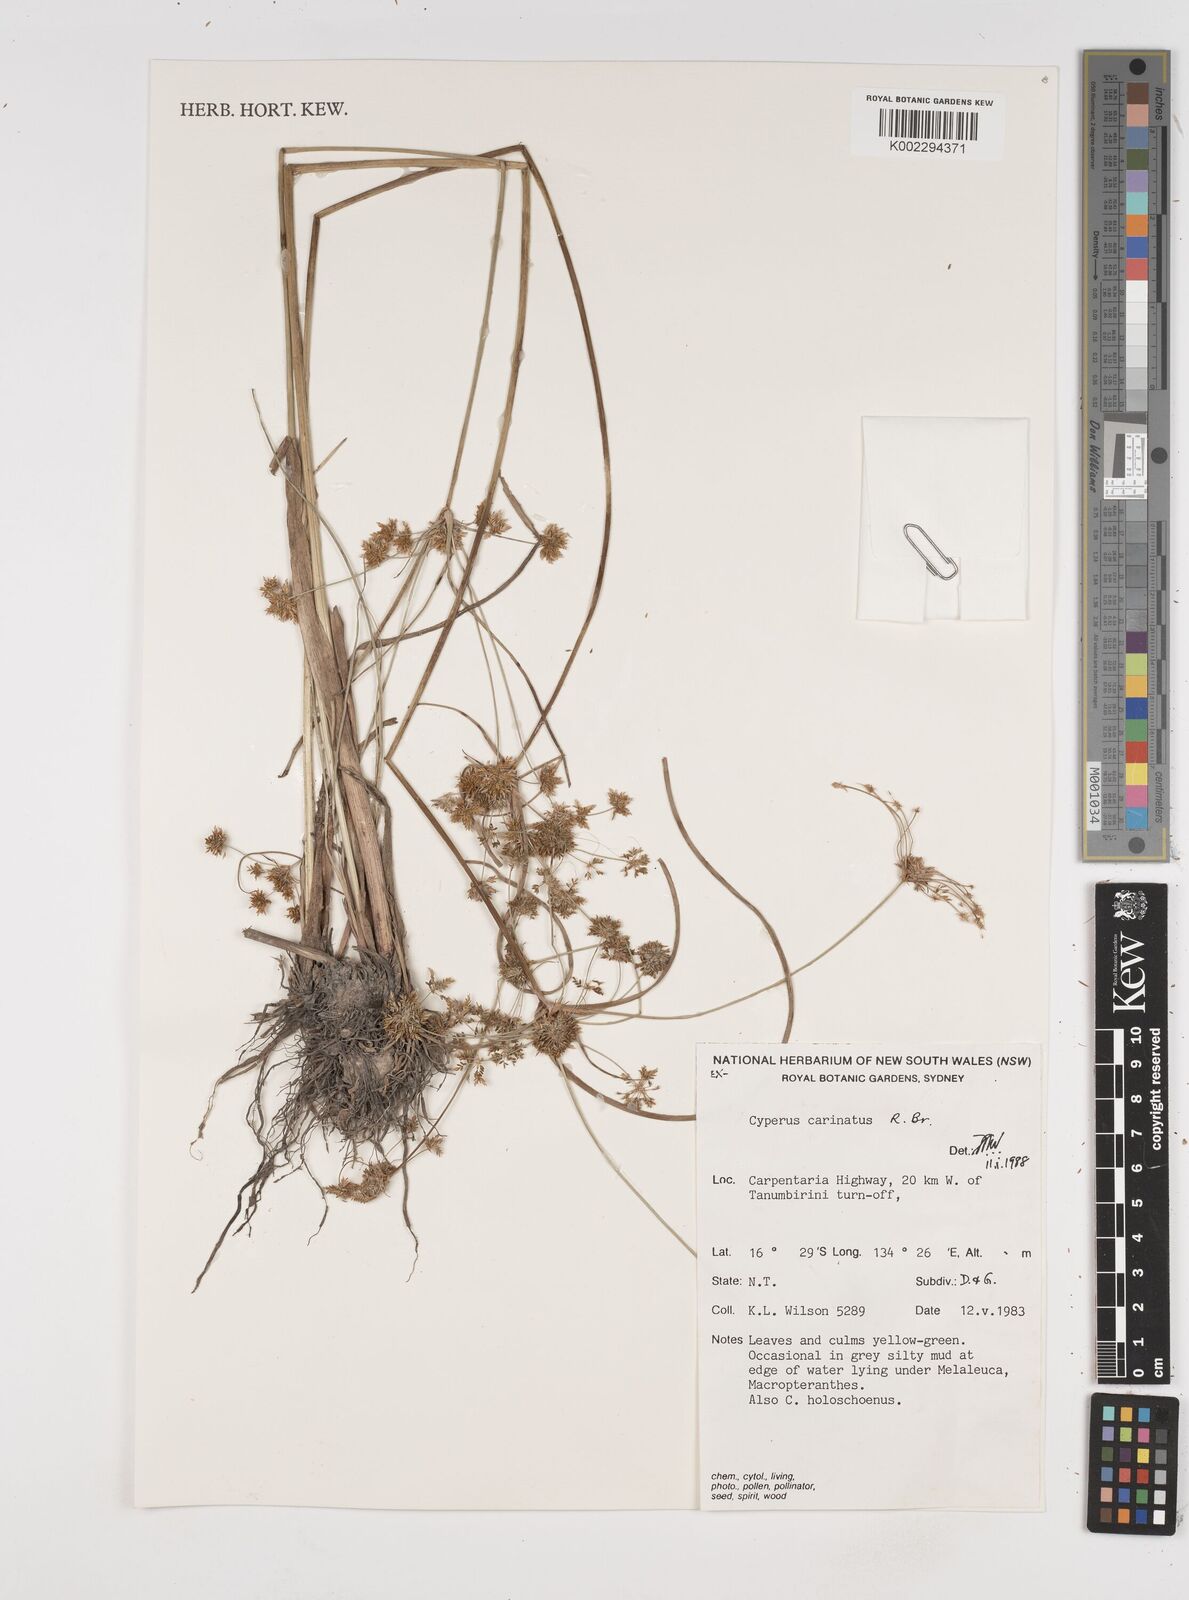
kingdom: Plantae
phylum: Tracheophyta
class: Liliopsida
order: Poales
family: Cyperaceae
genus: Cyperus
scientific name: Cyperus carinatus
